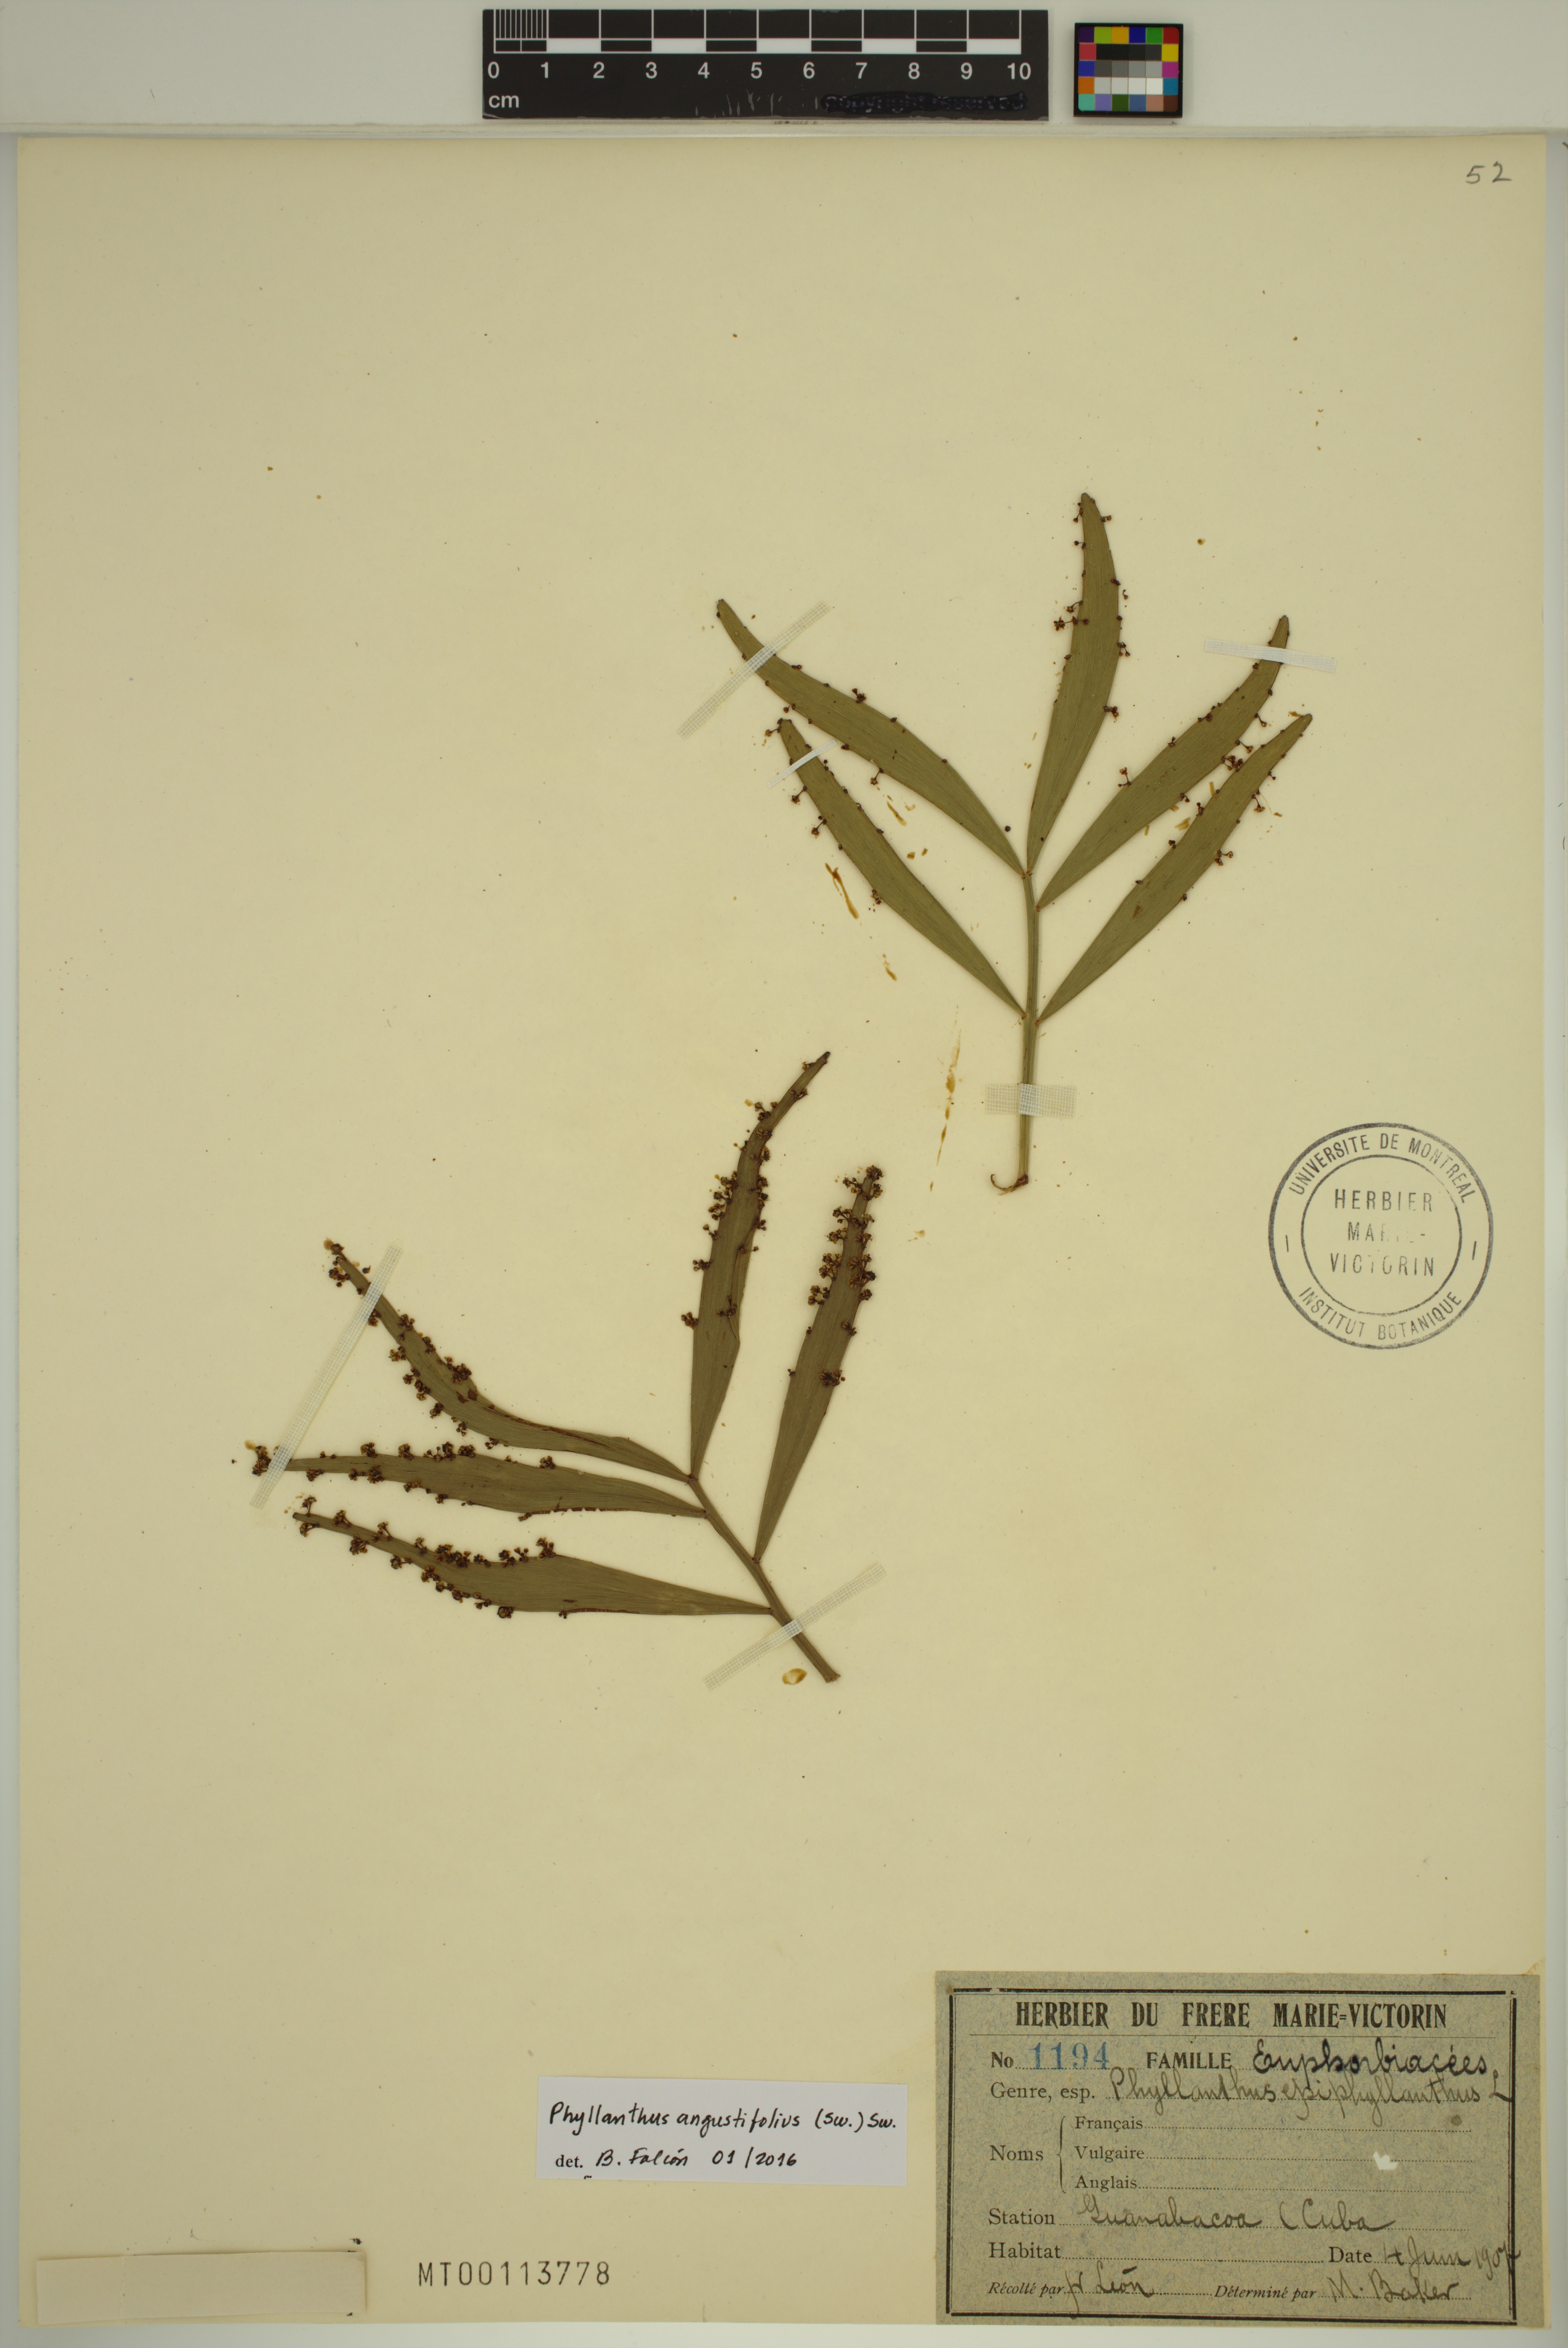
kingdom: Plantae
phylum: Tracheophyta
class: Magnoliopsida
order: Malpighiales
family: Phyllanthaceae
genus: Phyllanthus
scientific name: Phyllanthus angustifolius
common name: Foliage flower
